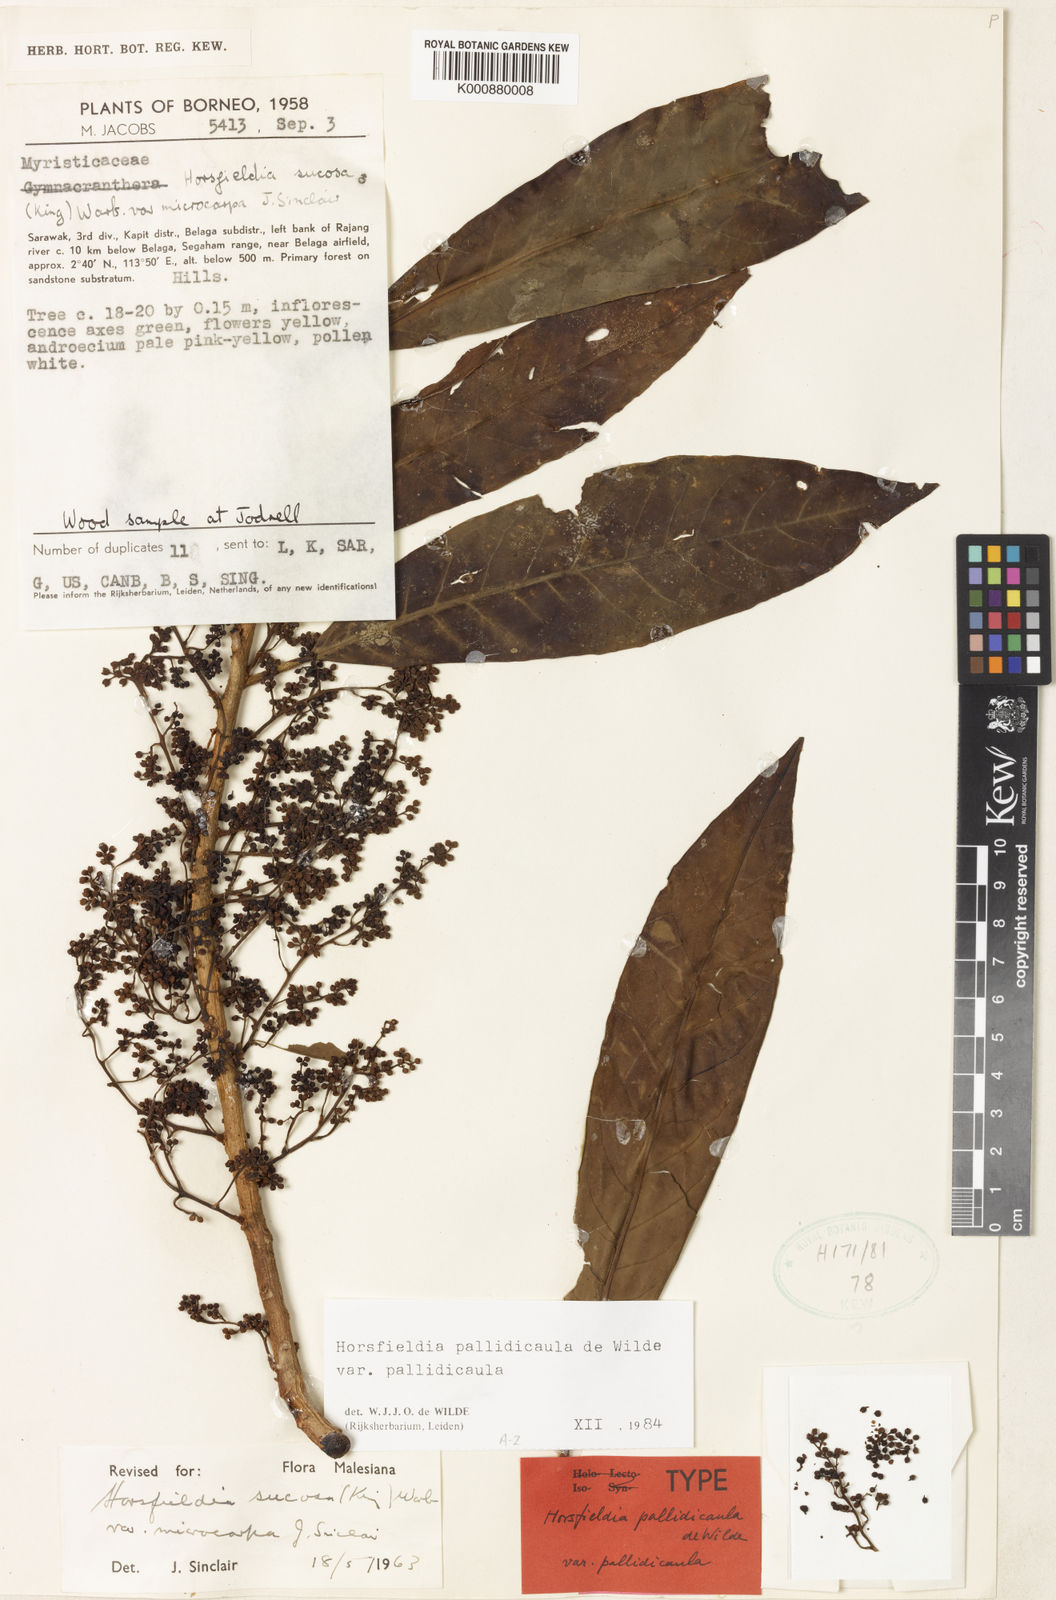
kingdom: Plantae
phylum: Tracheophyta
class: Magnoliopsida
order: Magnoliales
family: Myristicaceae
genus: Horsfieldia
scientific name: Horsfieldia pallidicaula
